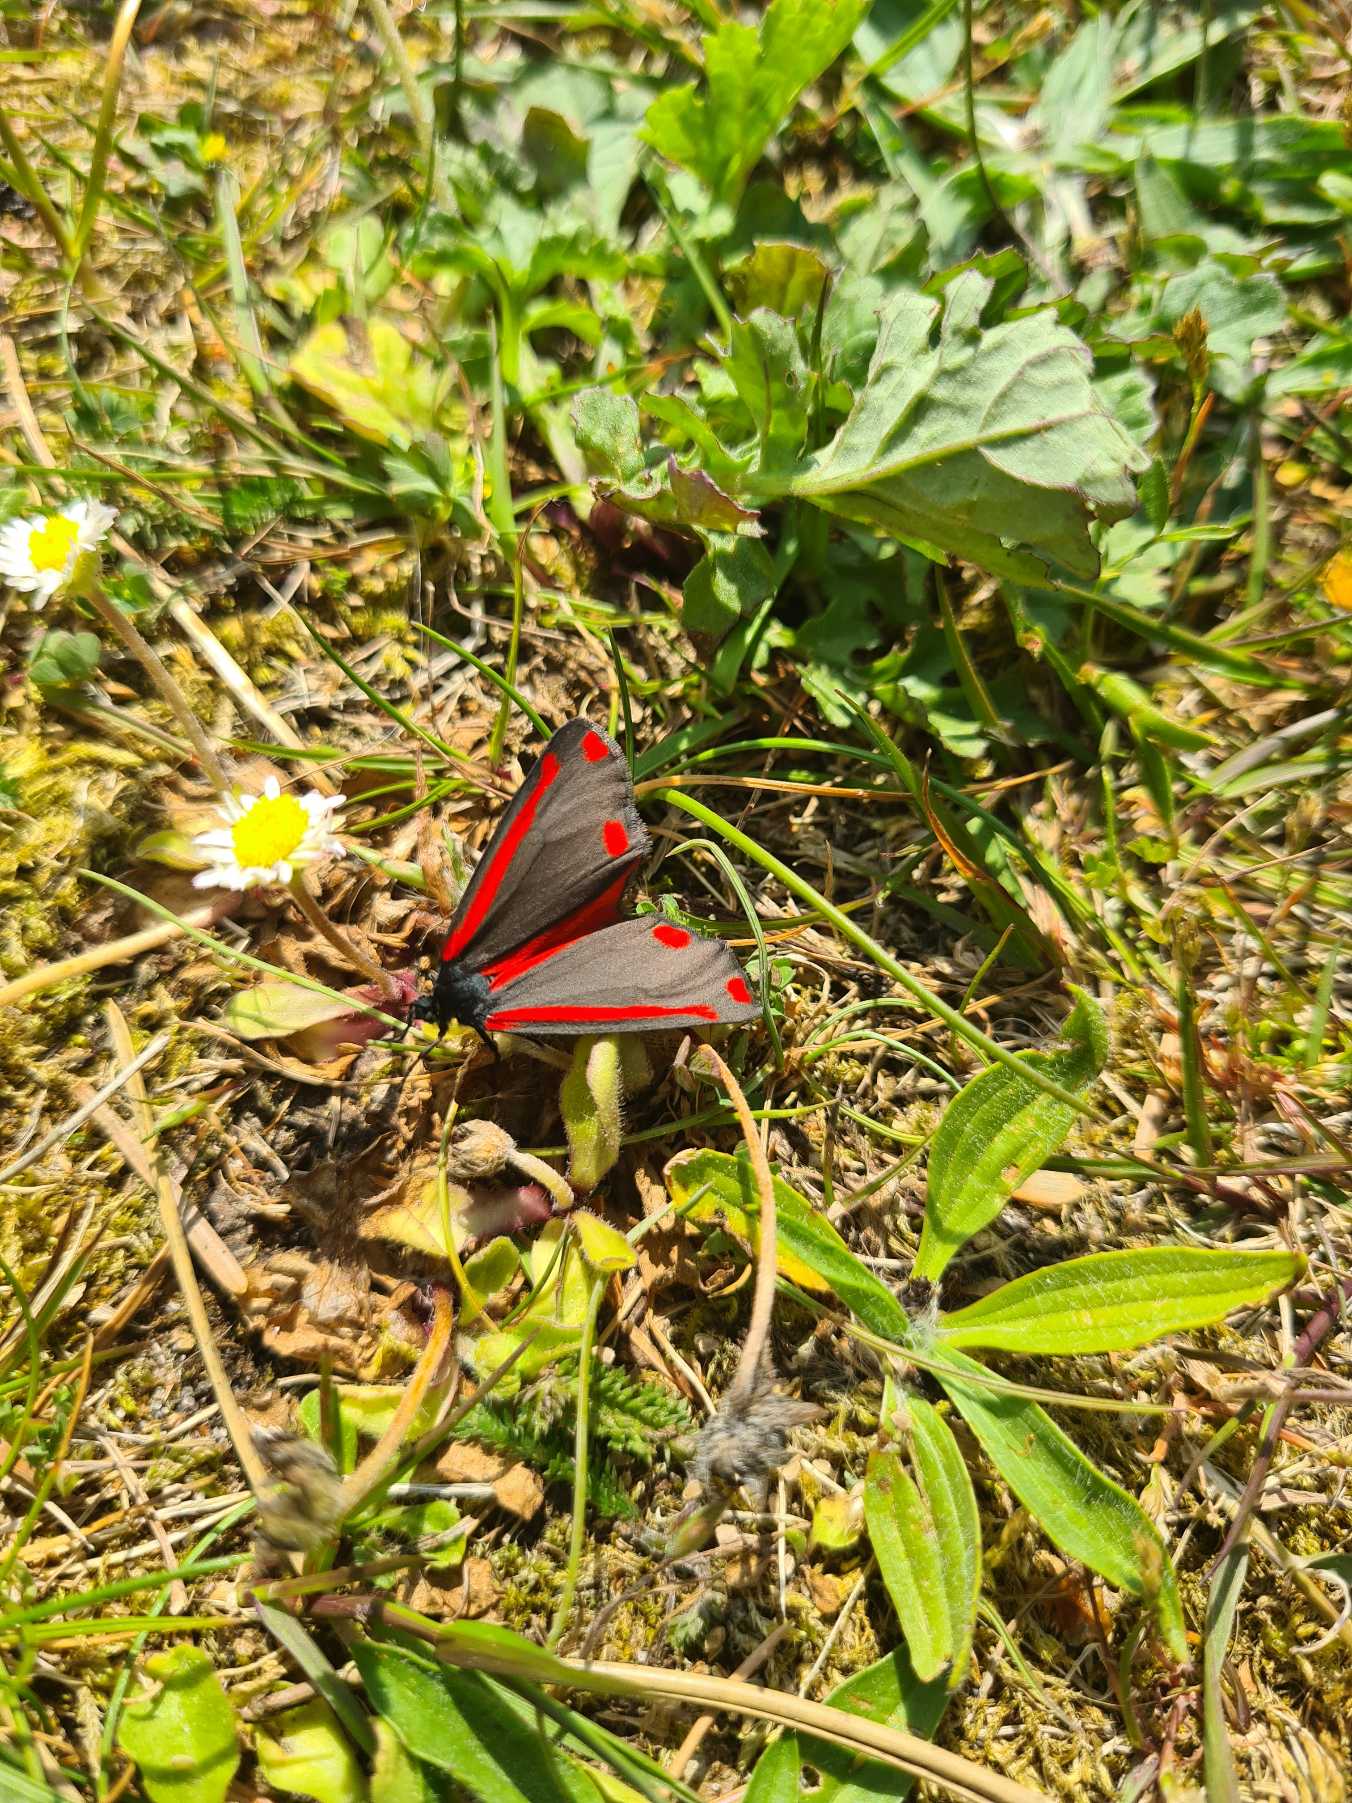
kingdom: Animalia
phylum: Arthropoda
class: Insecta
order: Lepidoptera
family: Erebidae
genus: Tyria
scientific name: Tyria jacobaeae
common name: Blodplet
